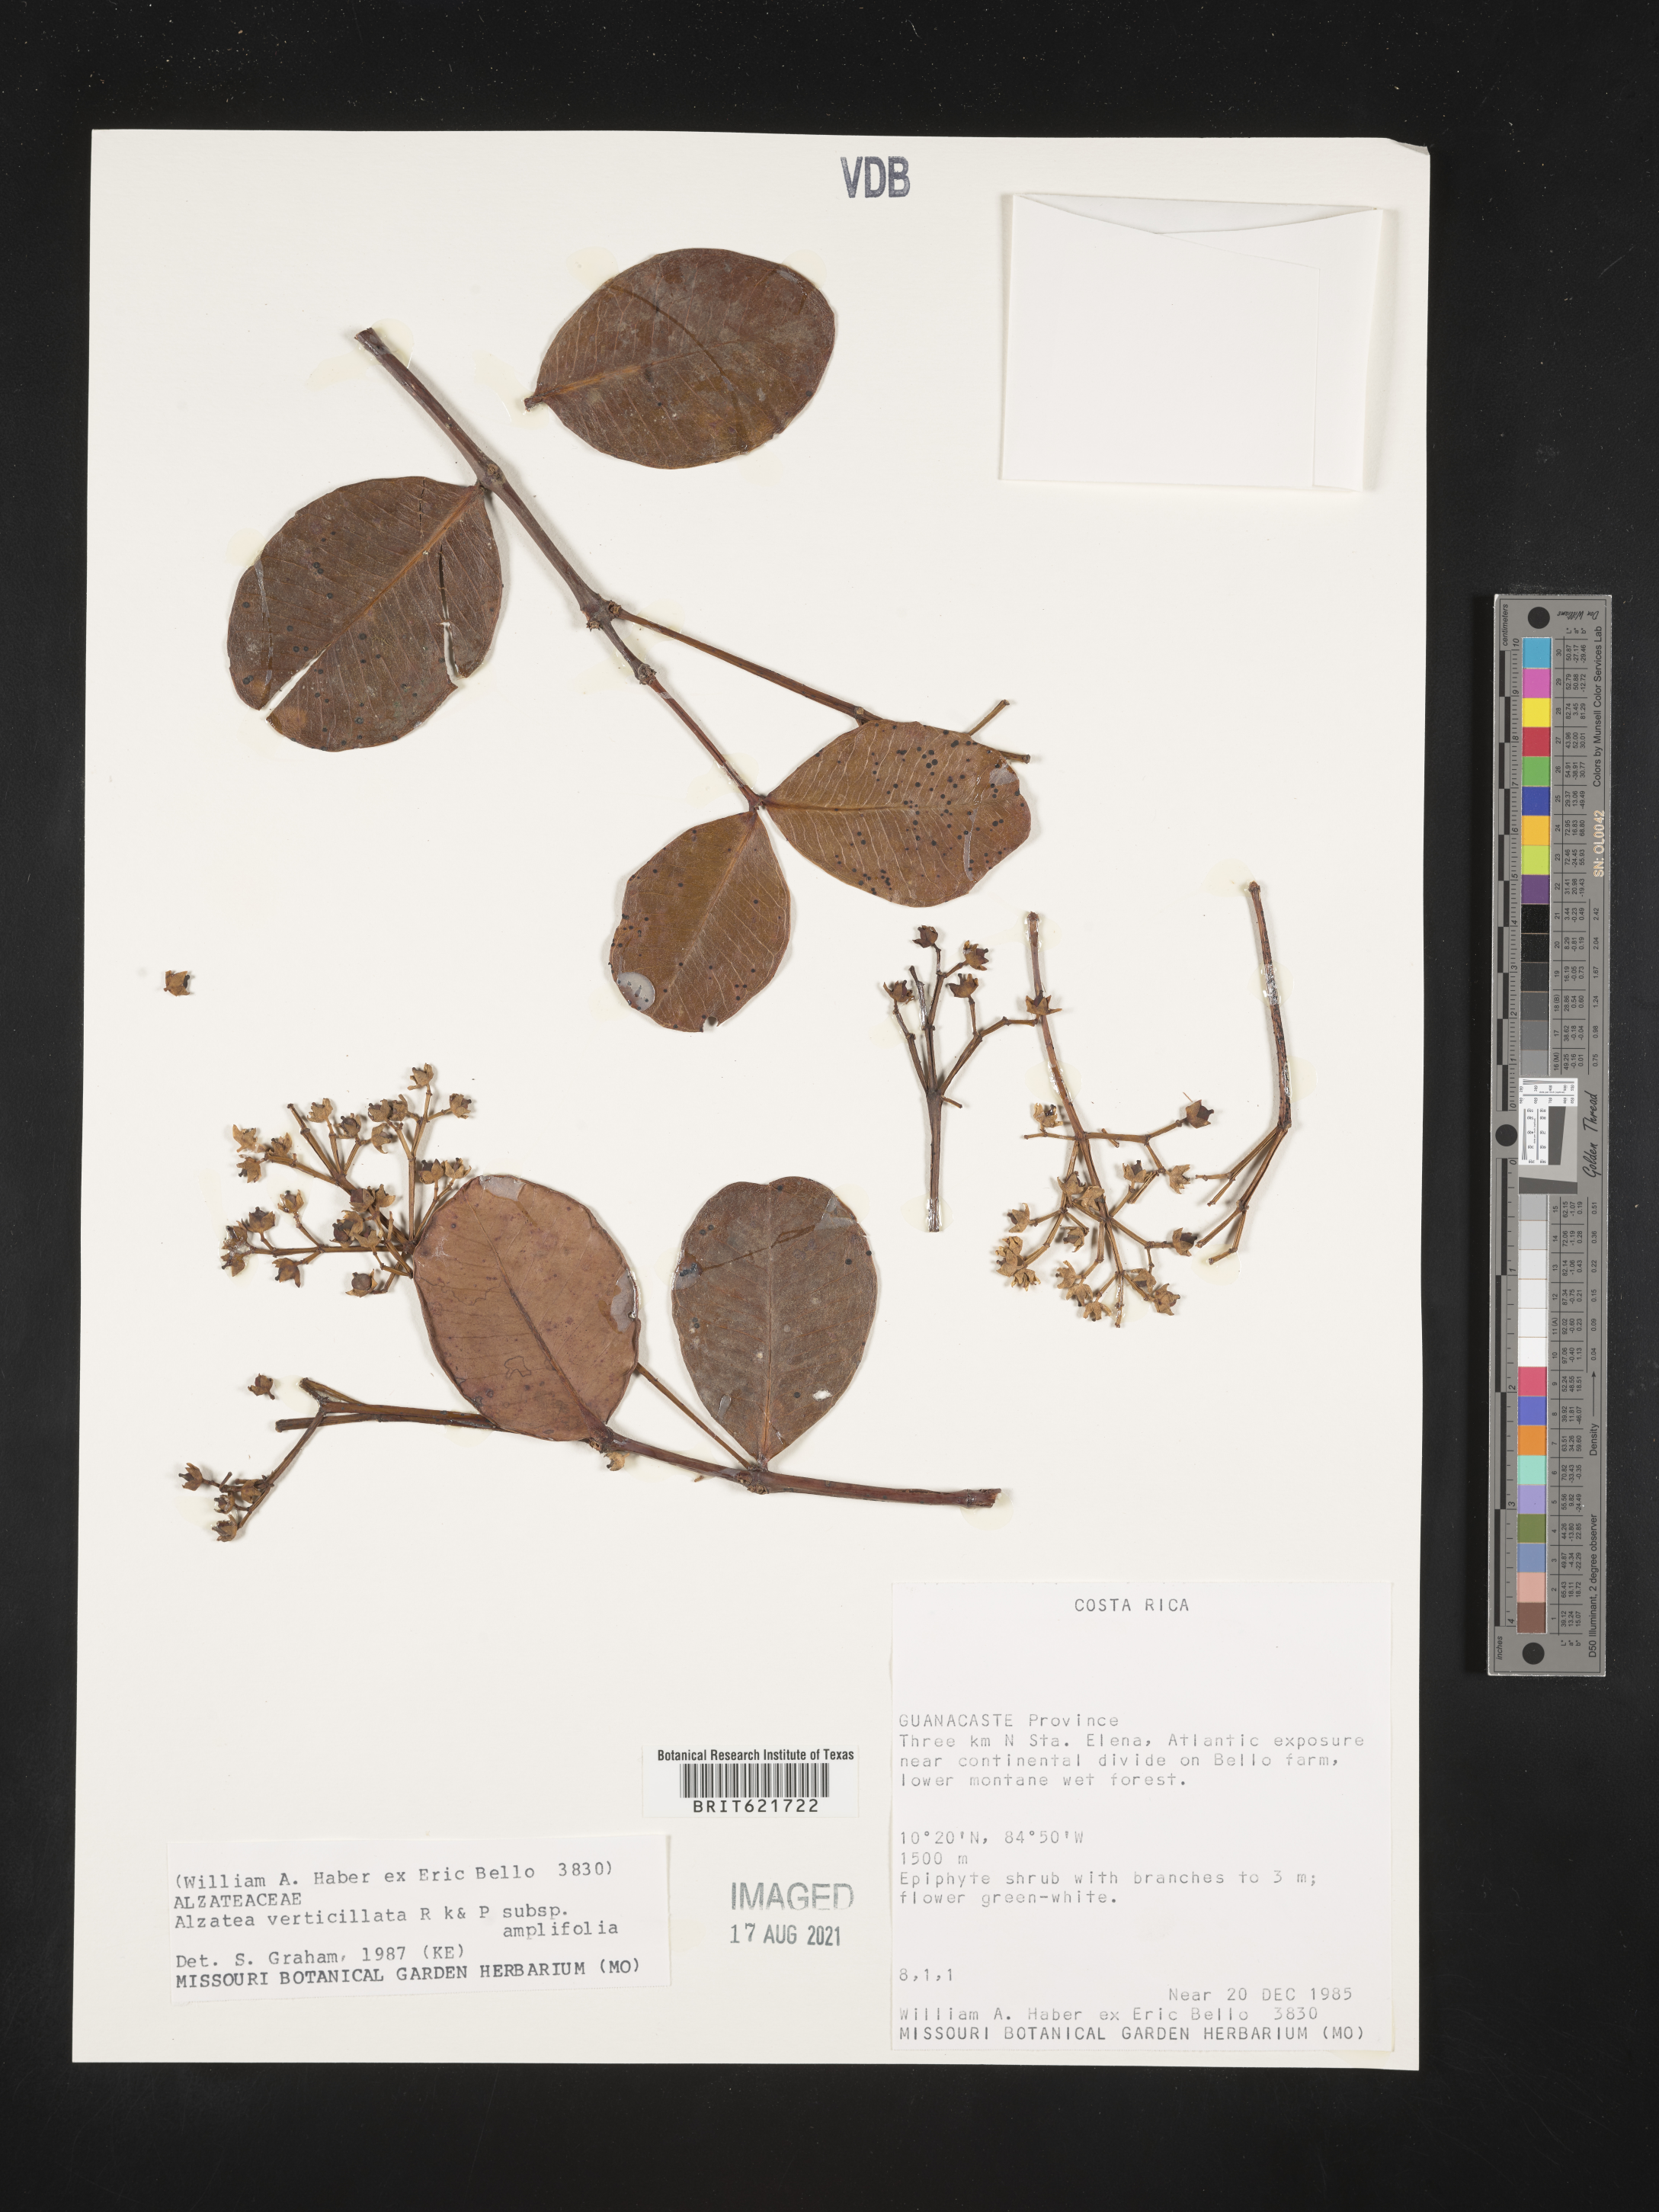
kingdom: Plantae
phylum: Tracheophyta
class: Magnoliopsida
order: Myrtales
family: Alzateaceae
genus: Alzatea
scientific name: Alzatea verticillata
